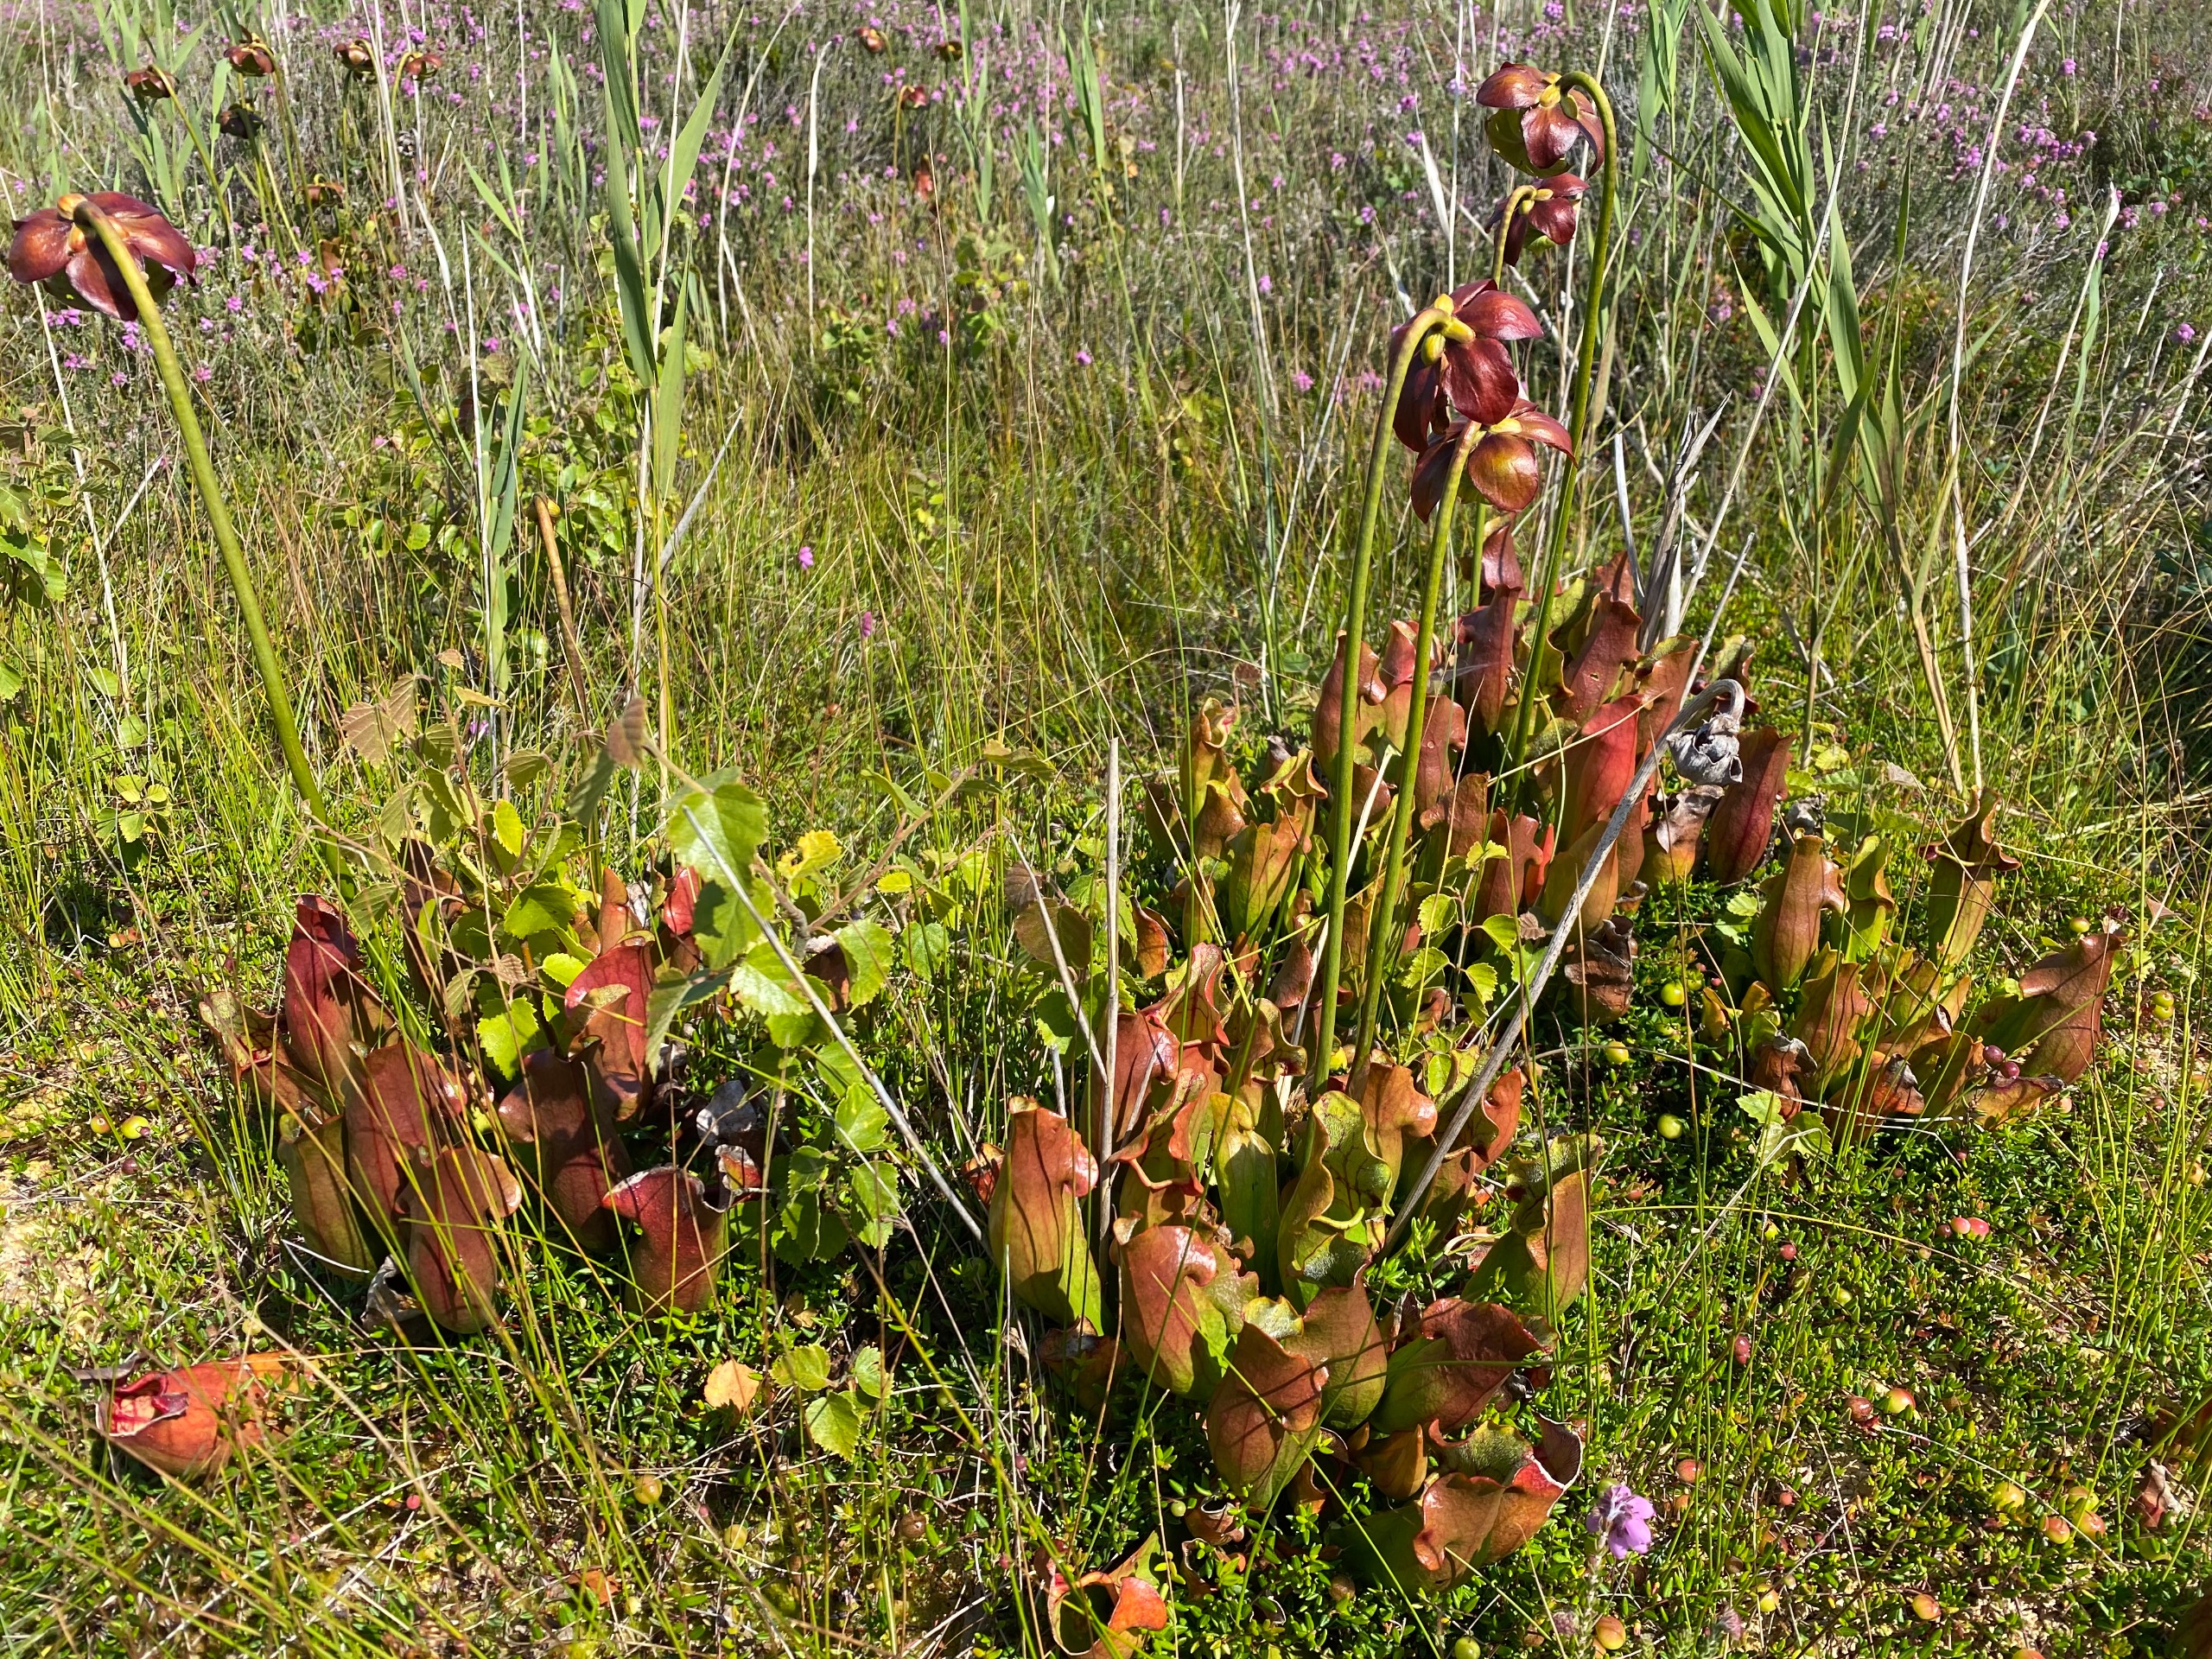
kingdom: Plantae
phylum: Tracheophyta
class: Magnoliopsida
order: Ericales
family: Sarraceniaceae
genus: Sarracenia
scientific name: Sarracenia purpurea
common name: Trompetblad
